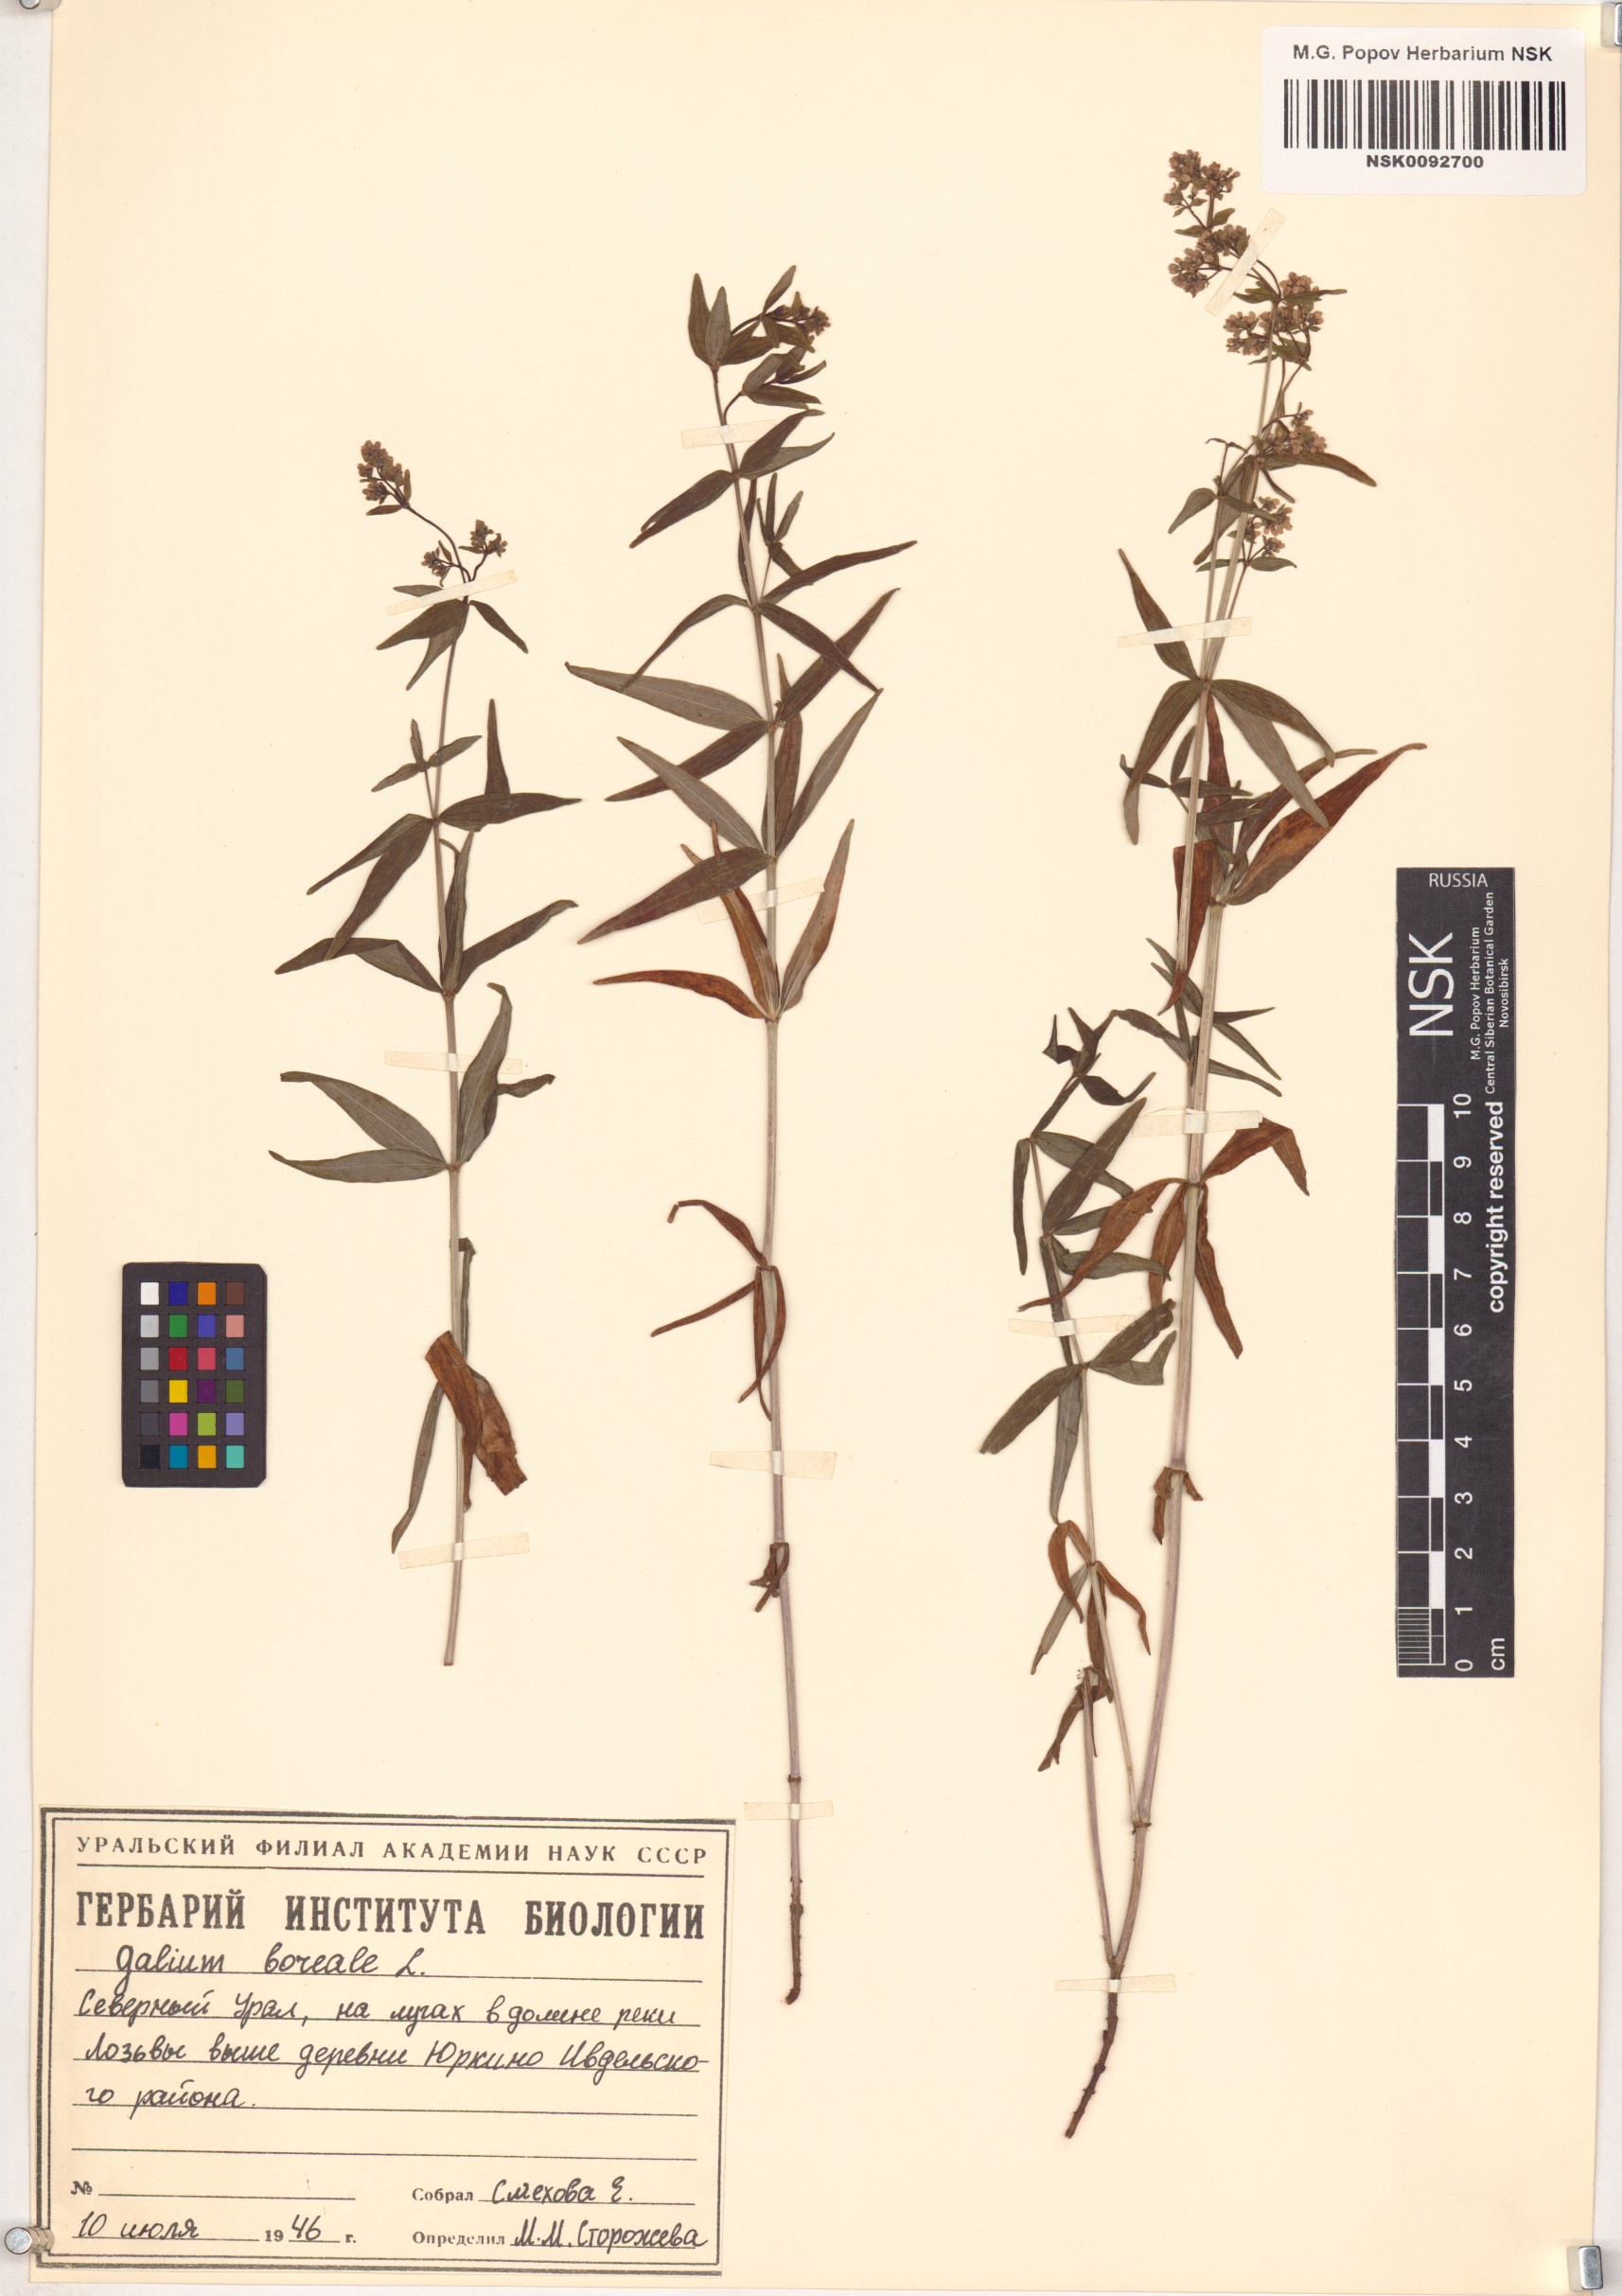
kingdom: Plantae
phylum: Tracheophyta
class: Magnoliopsida
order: Gentianales
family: Rubiaceae
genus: Galium
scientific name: Galium boreale
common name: Northern bedstraw
